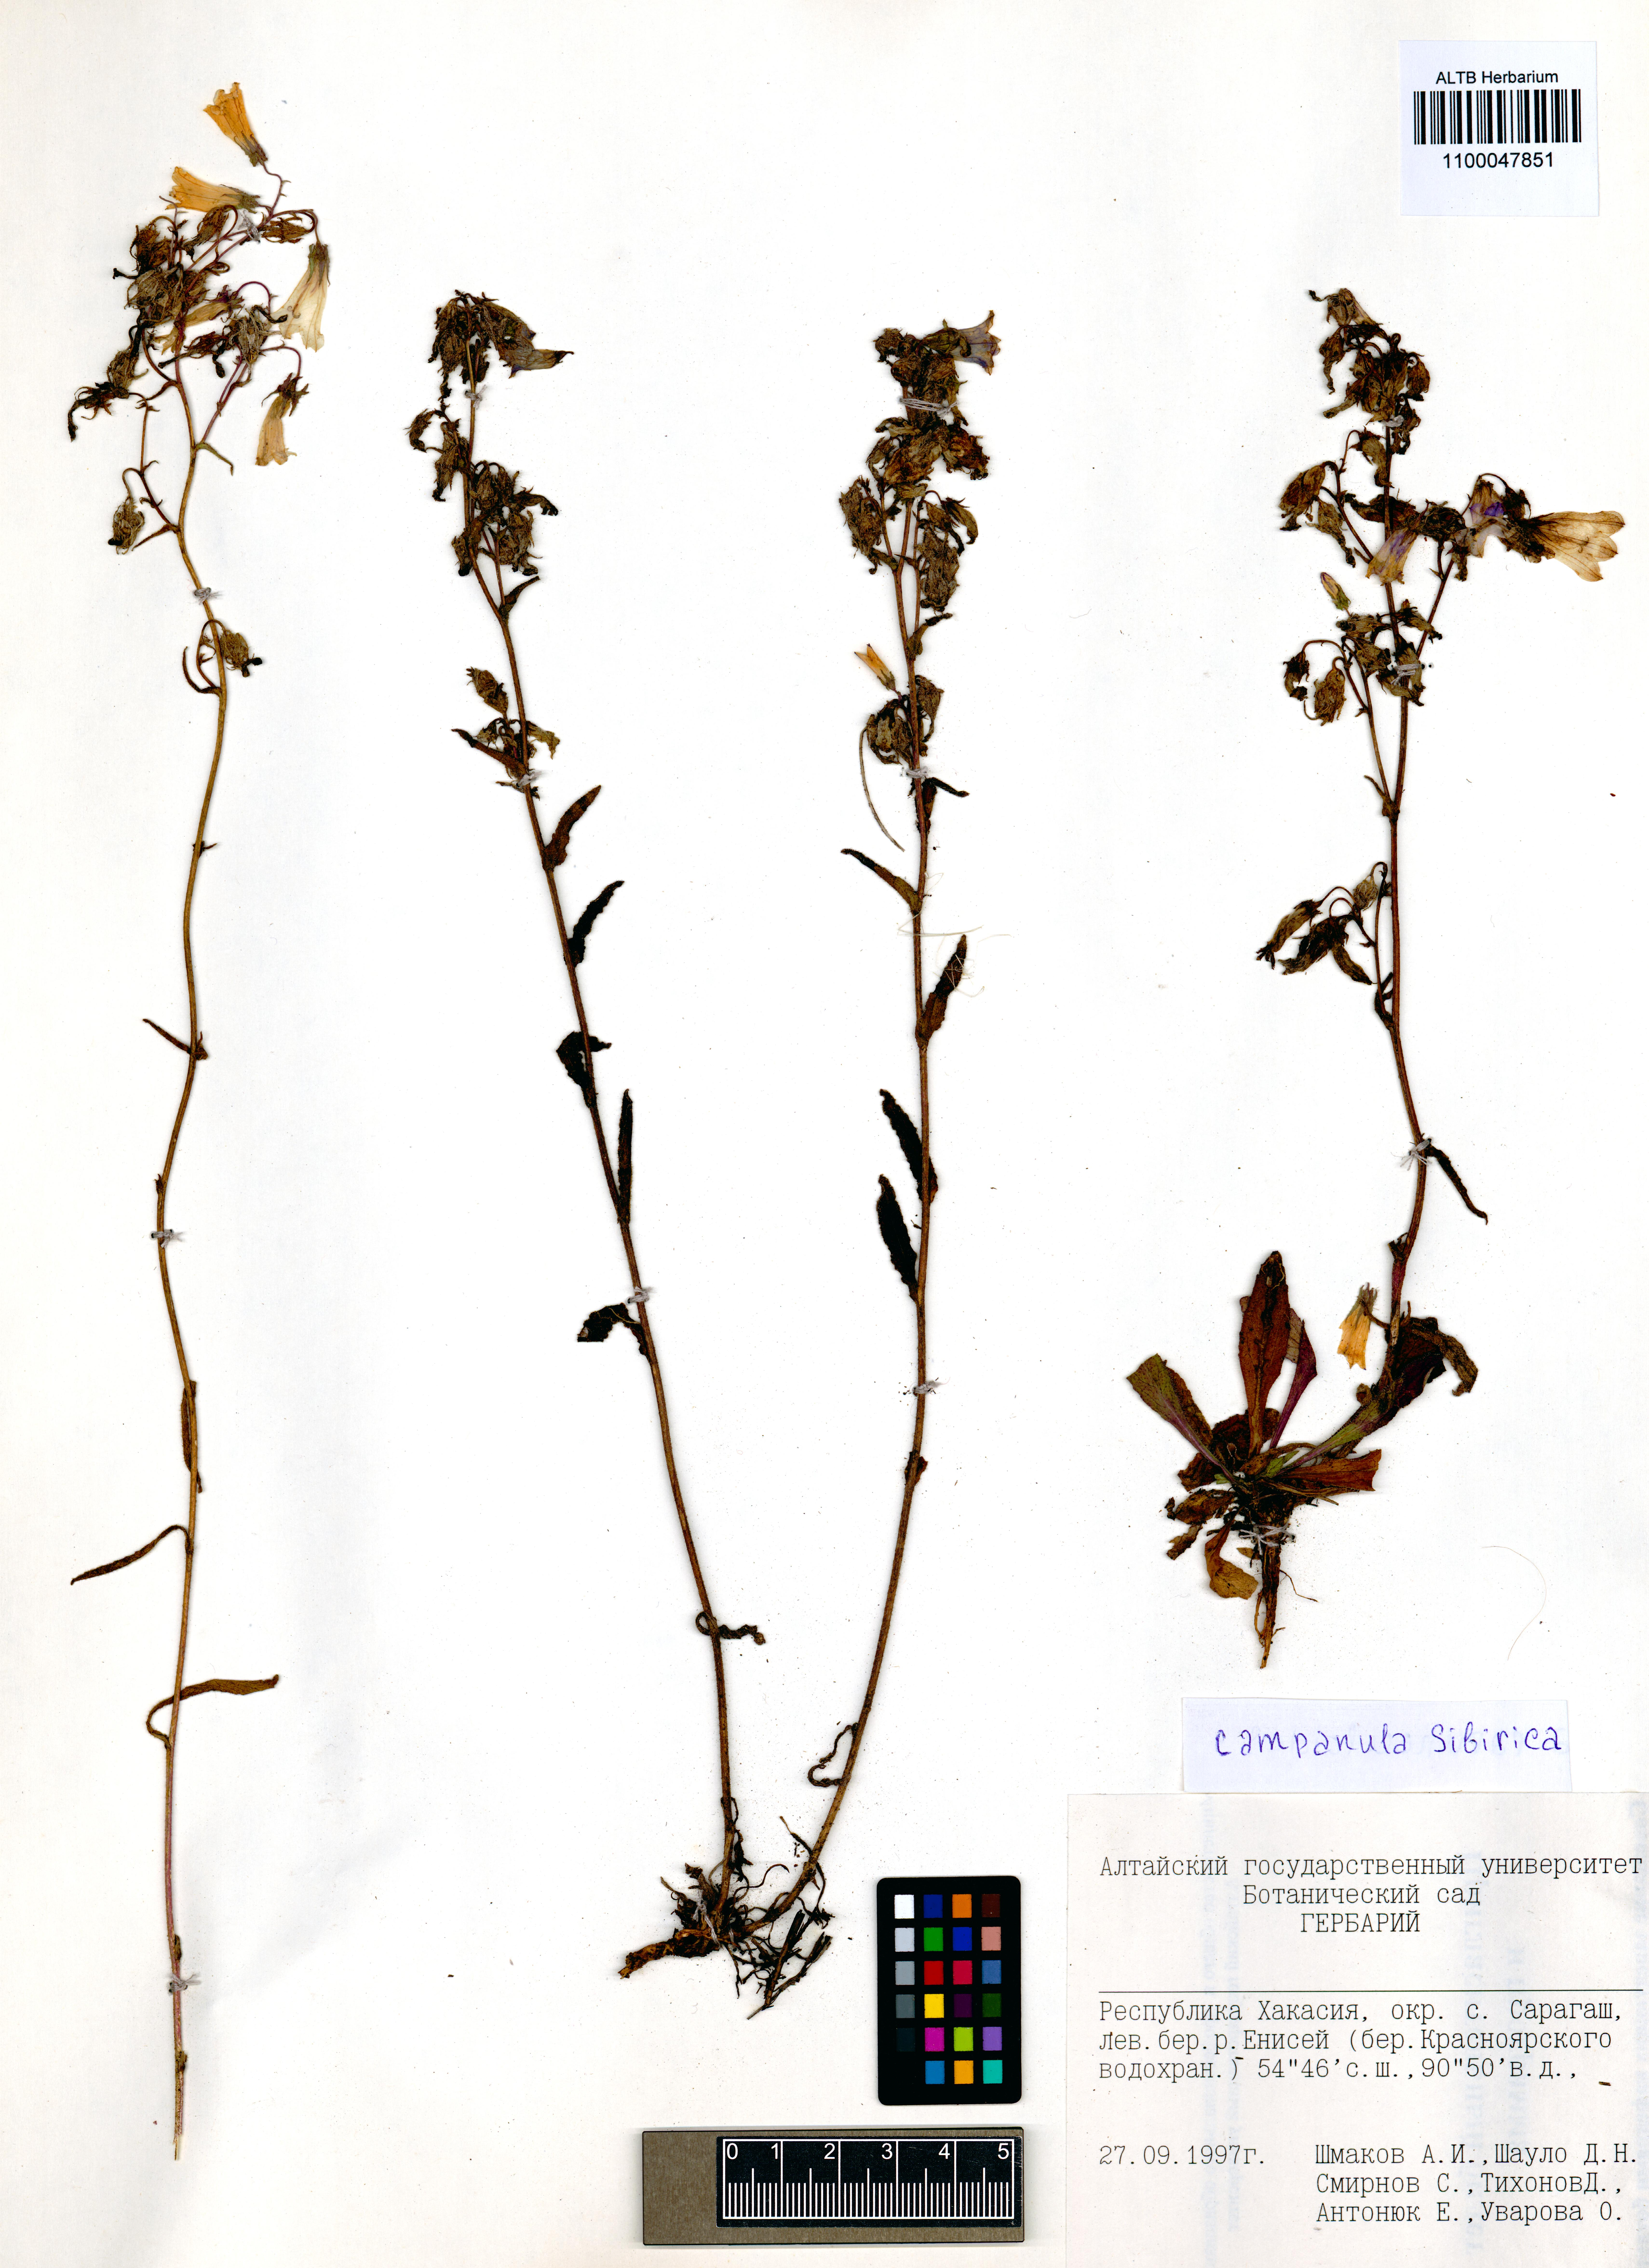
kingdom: Plantae
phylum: Tracheophyta
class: Magnoliopsida
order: Asterales
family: Campanulaceae
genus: Campanula
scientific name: Campanula sibirica
